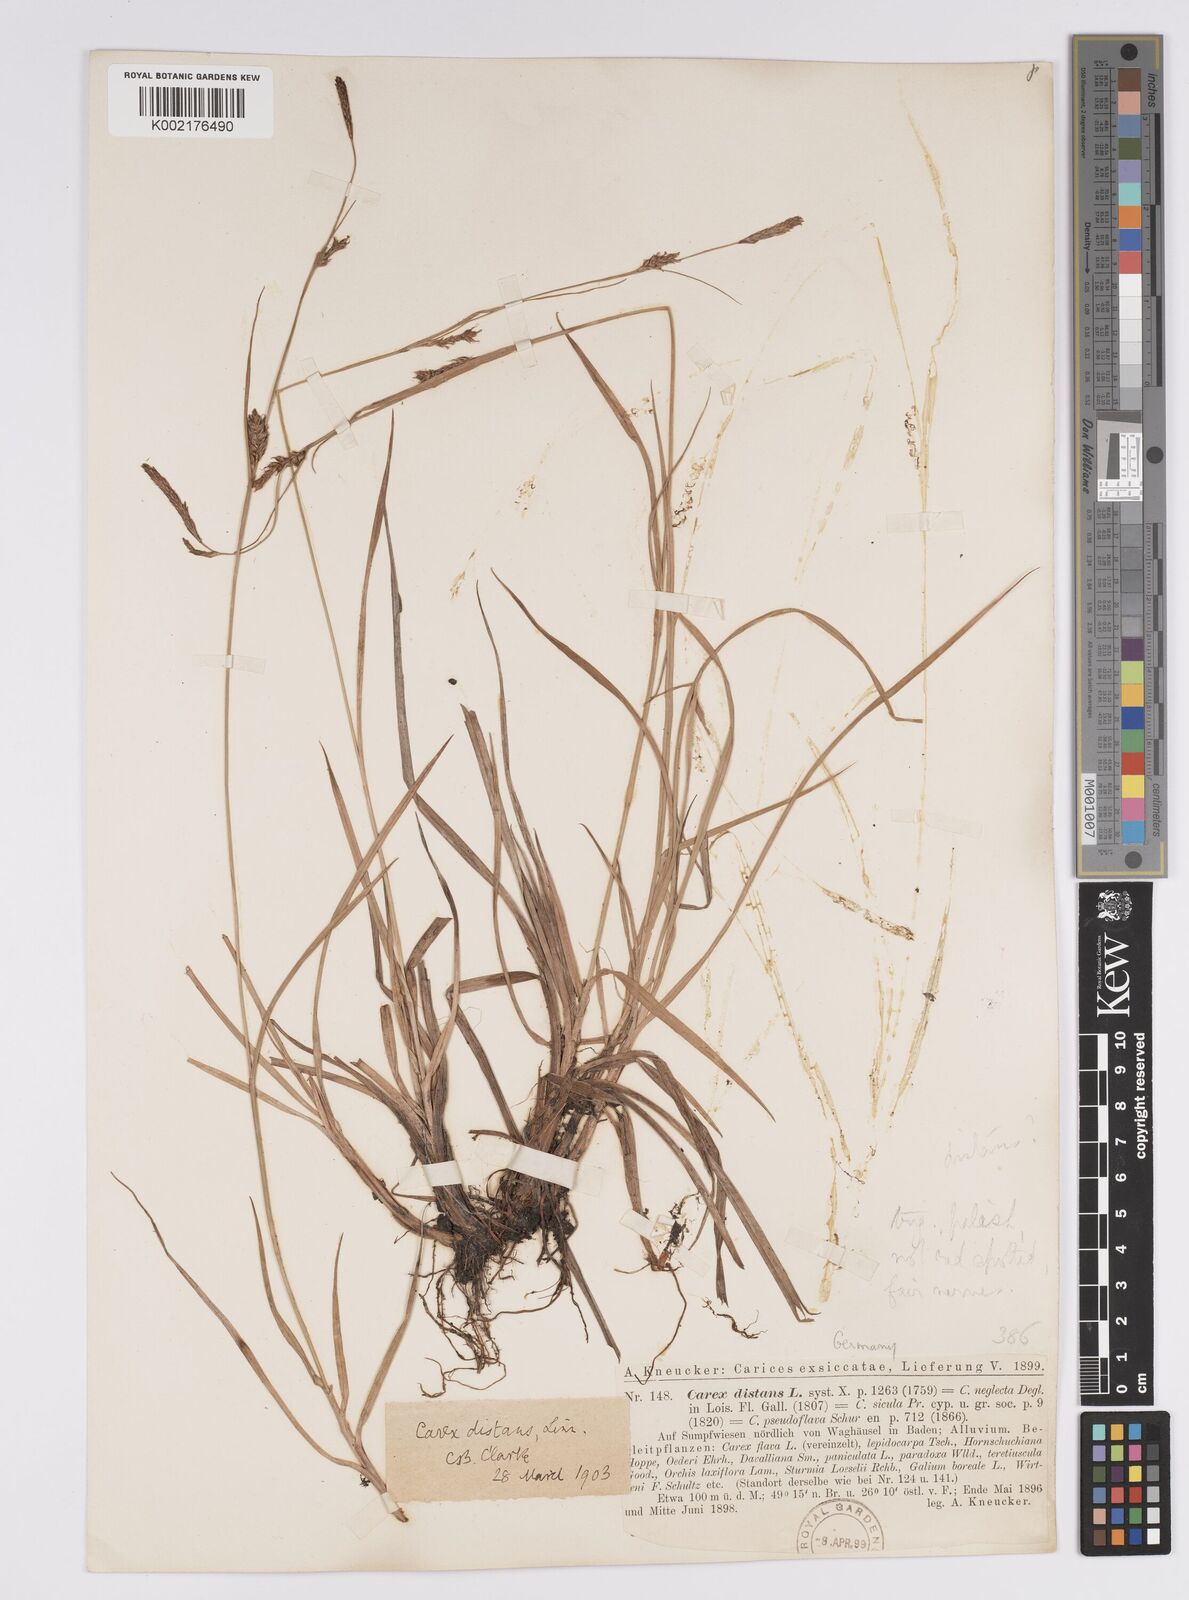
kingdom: Plantae
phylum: Tracheophyta
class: Liliopsida
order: Poales
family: Cyperaceae
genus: Carex
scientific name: Carex distans
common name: Distant sedge
